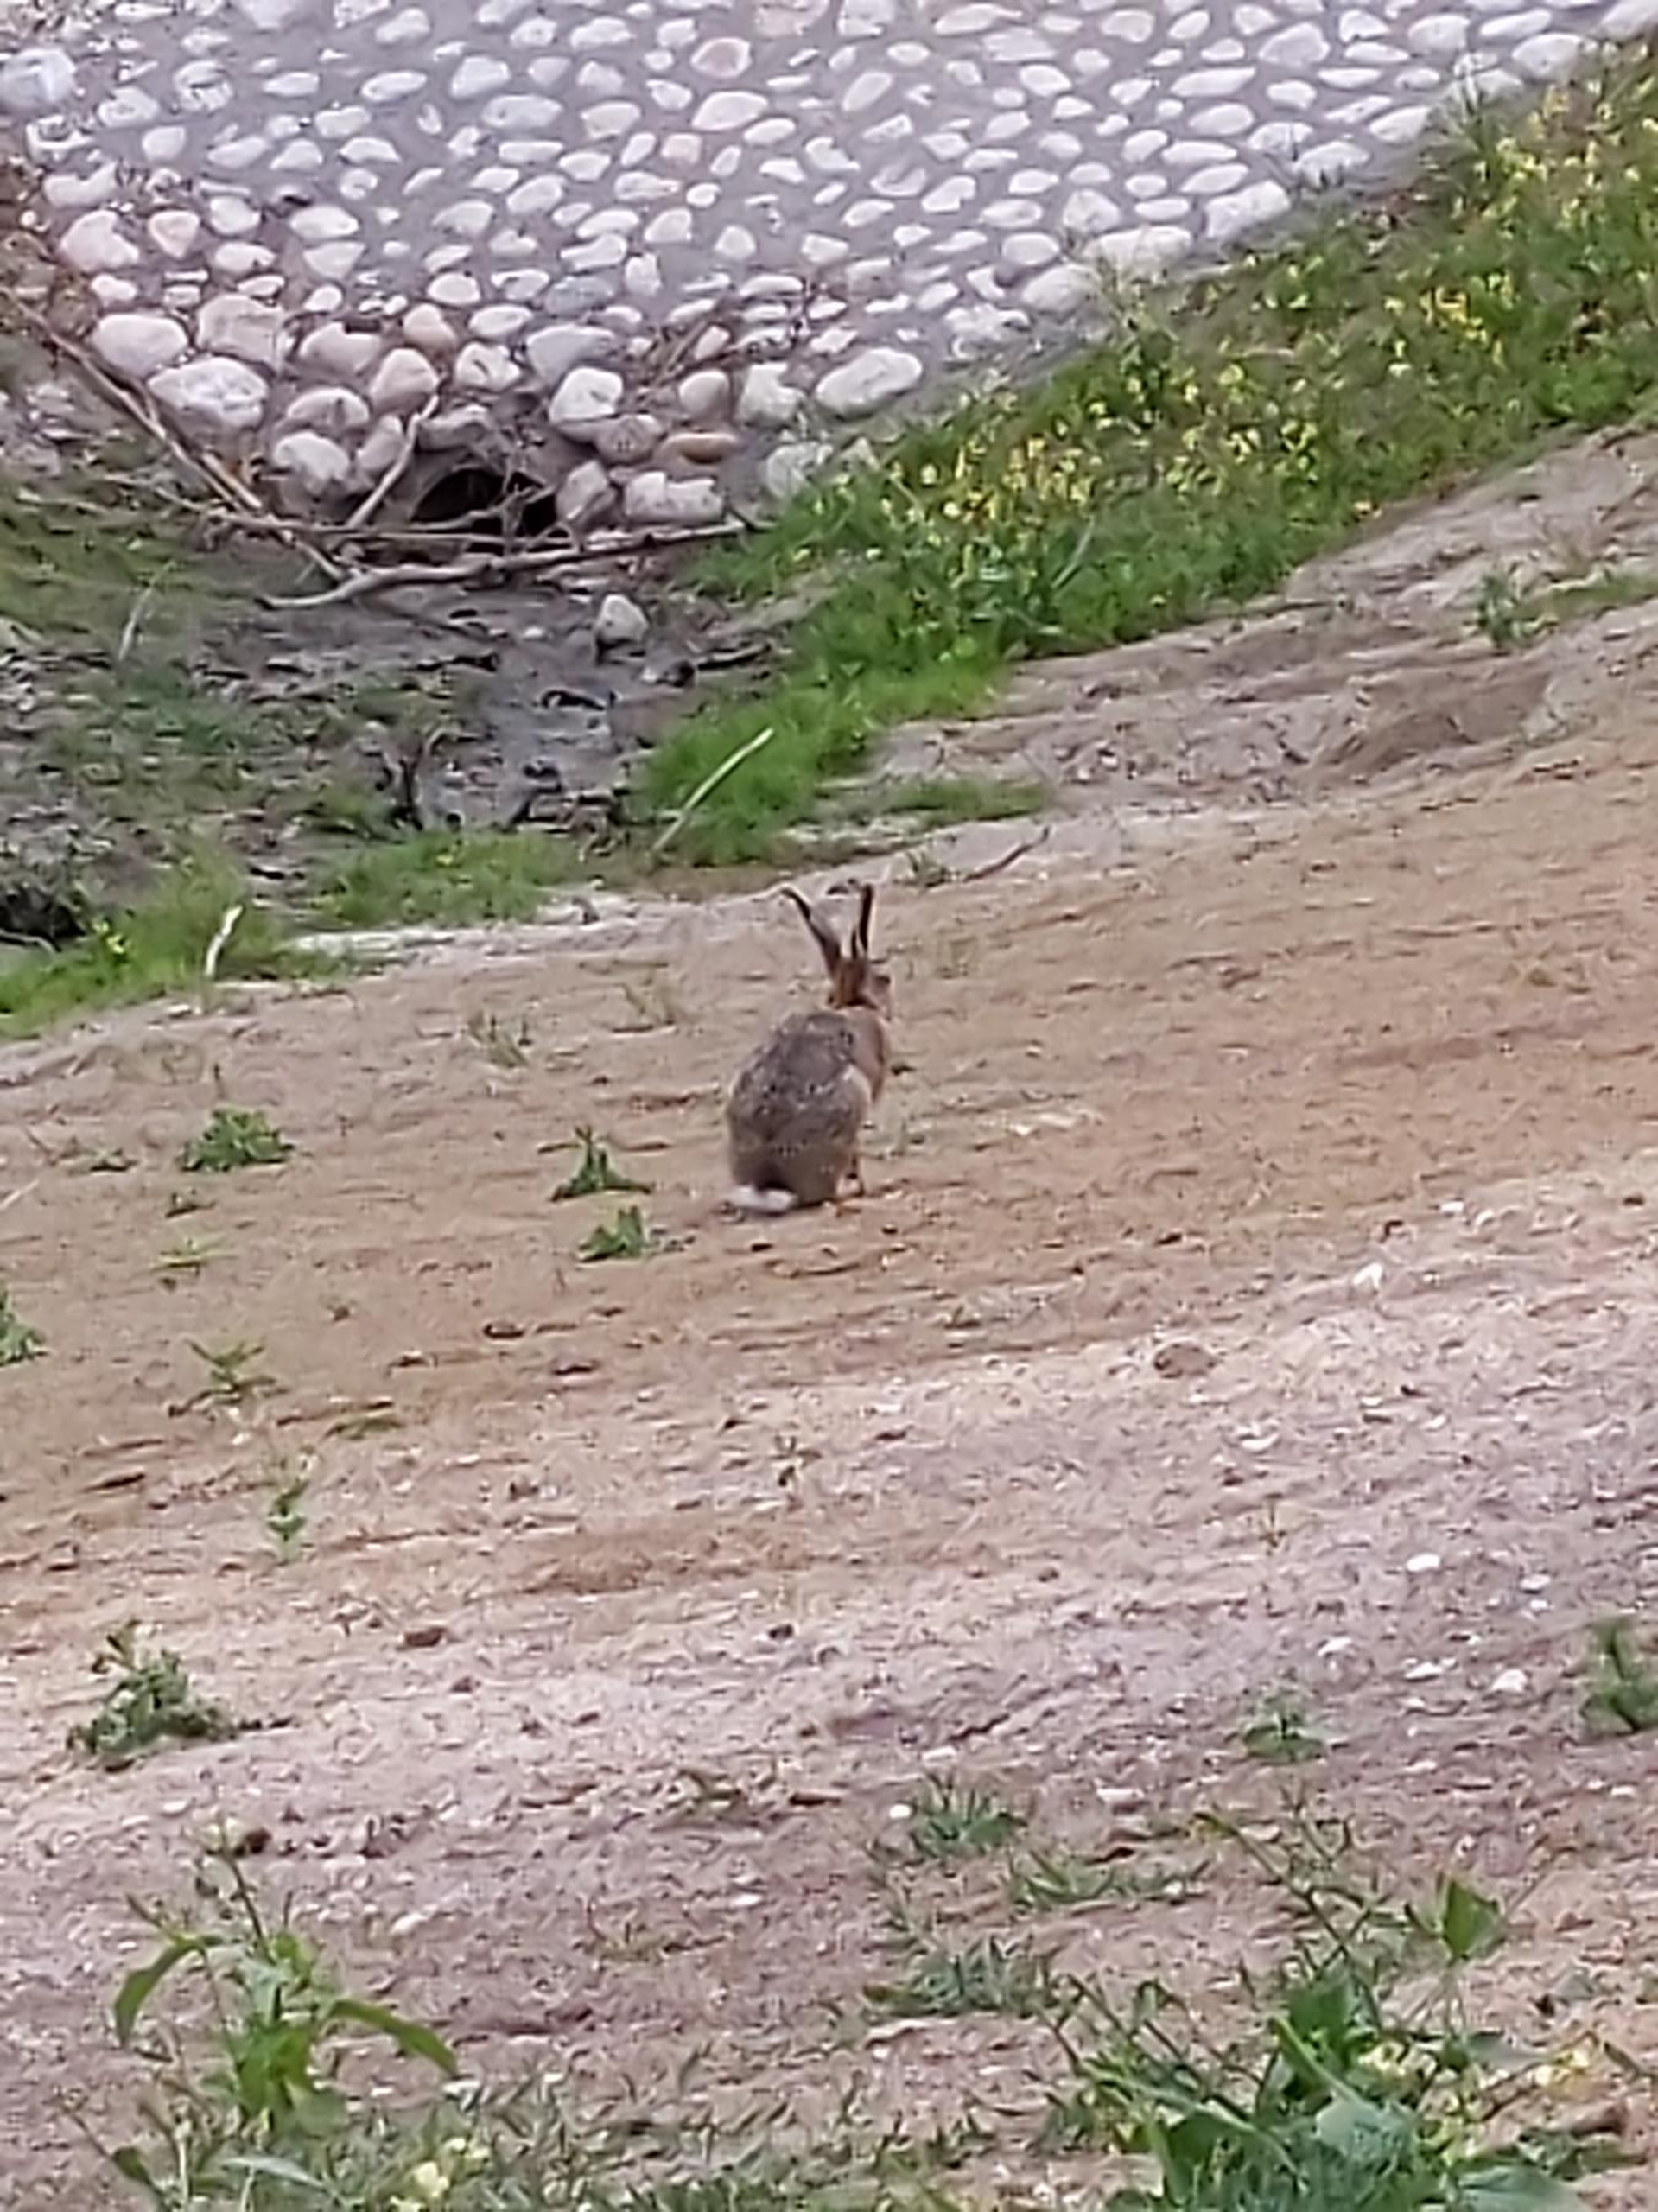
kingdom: Animalia
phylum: Chordata
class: Mammalia
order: Lagomorpha
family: Leporidae
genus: Lepus
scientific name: Lepus europaeus
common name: Hare
